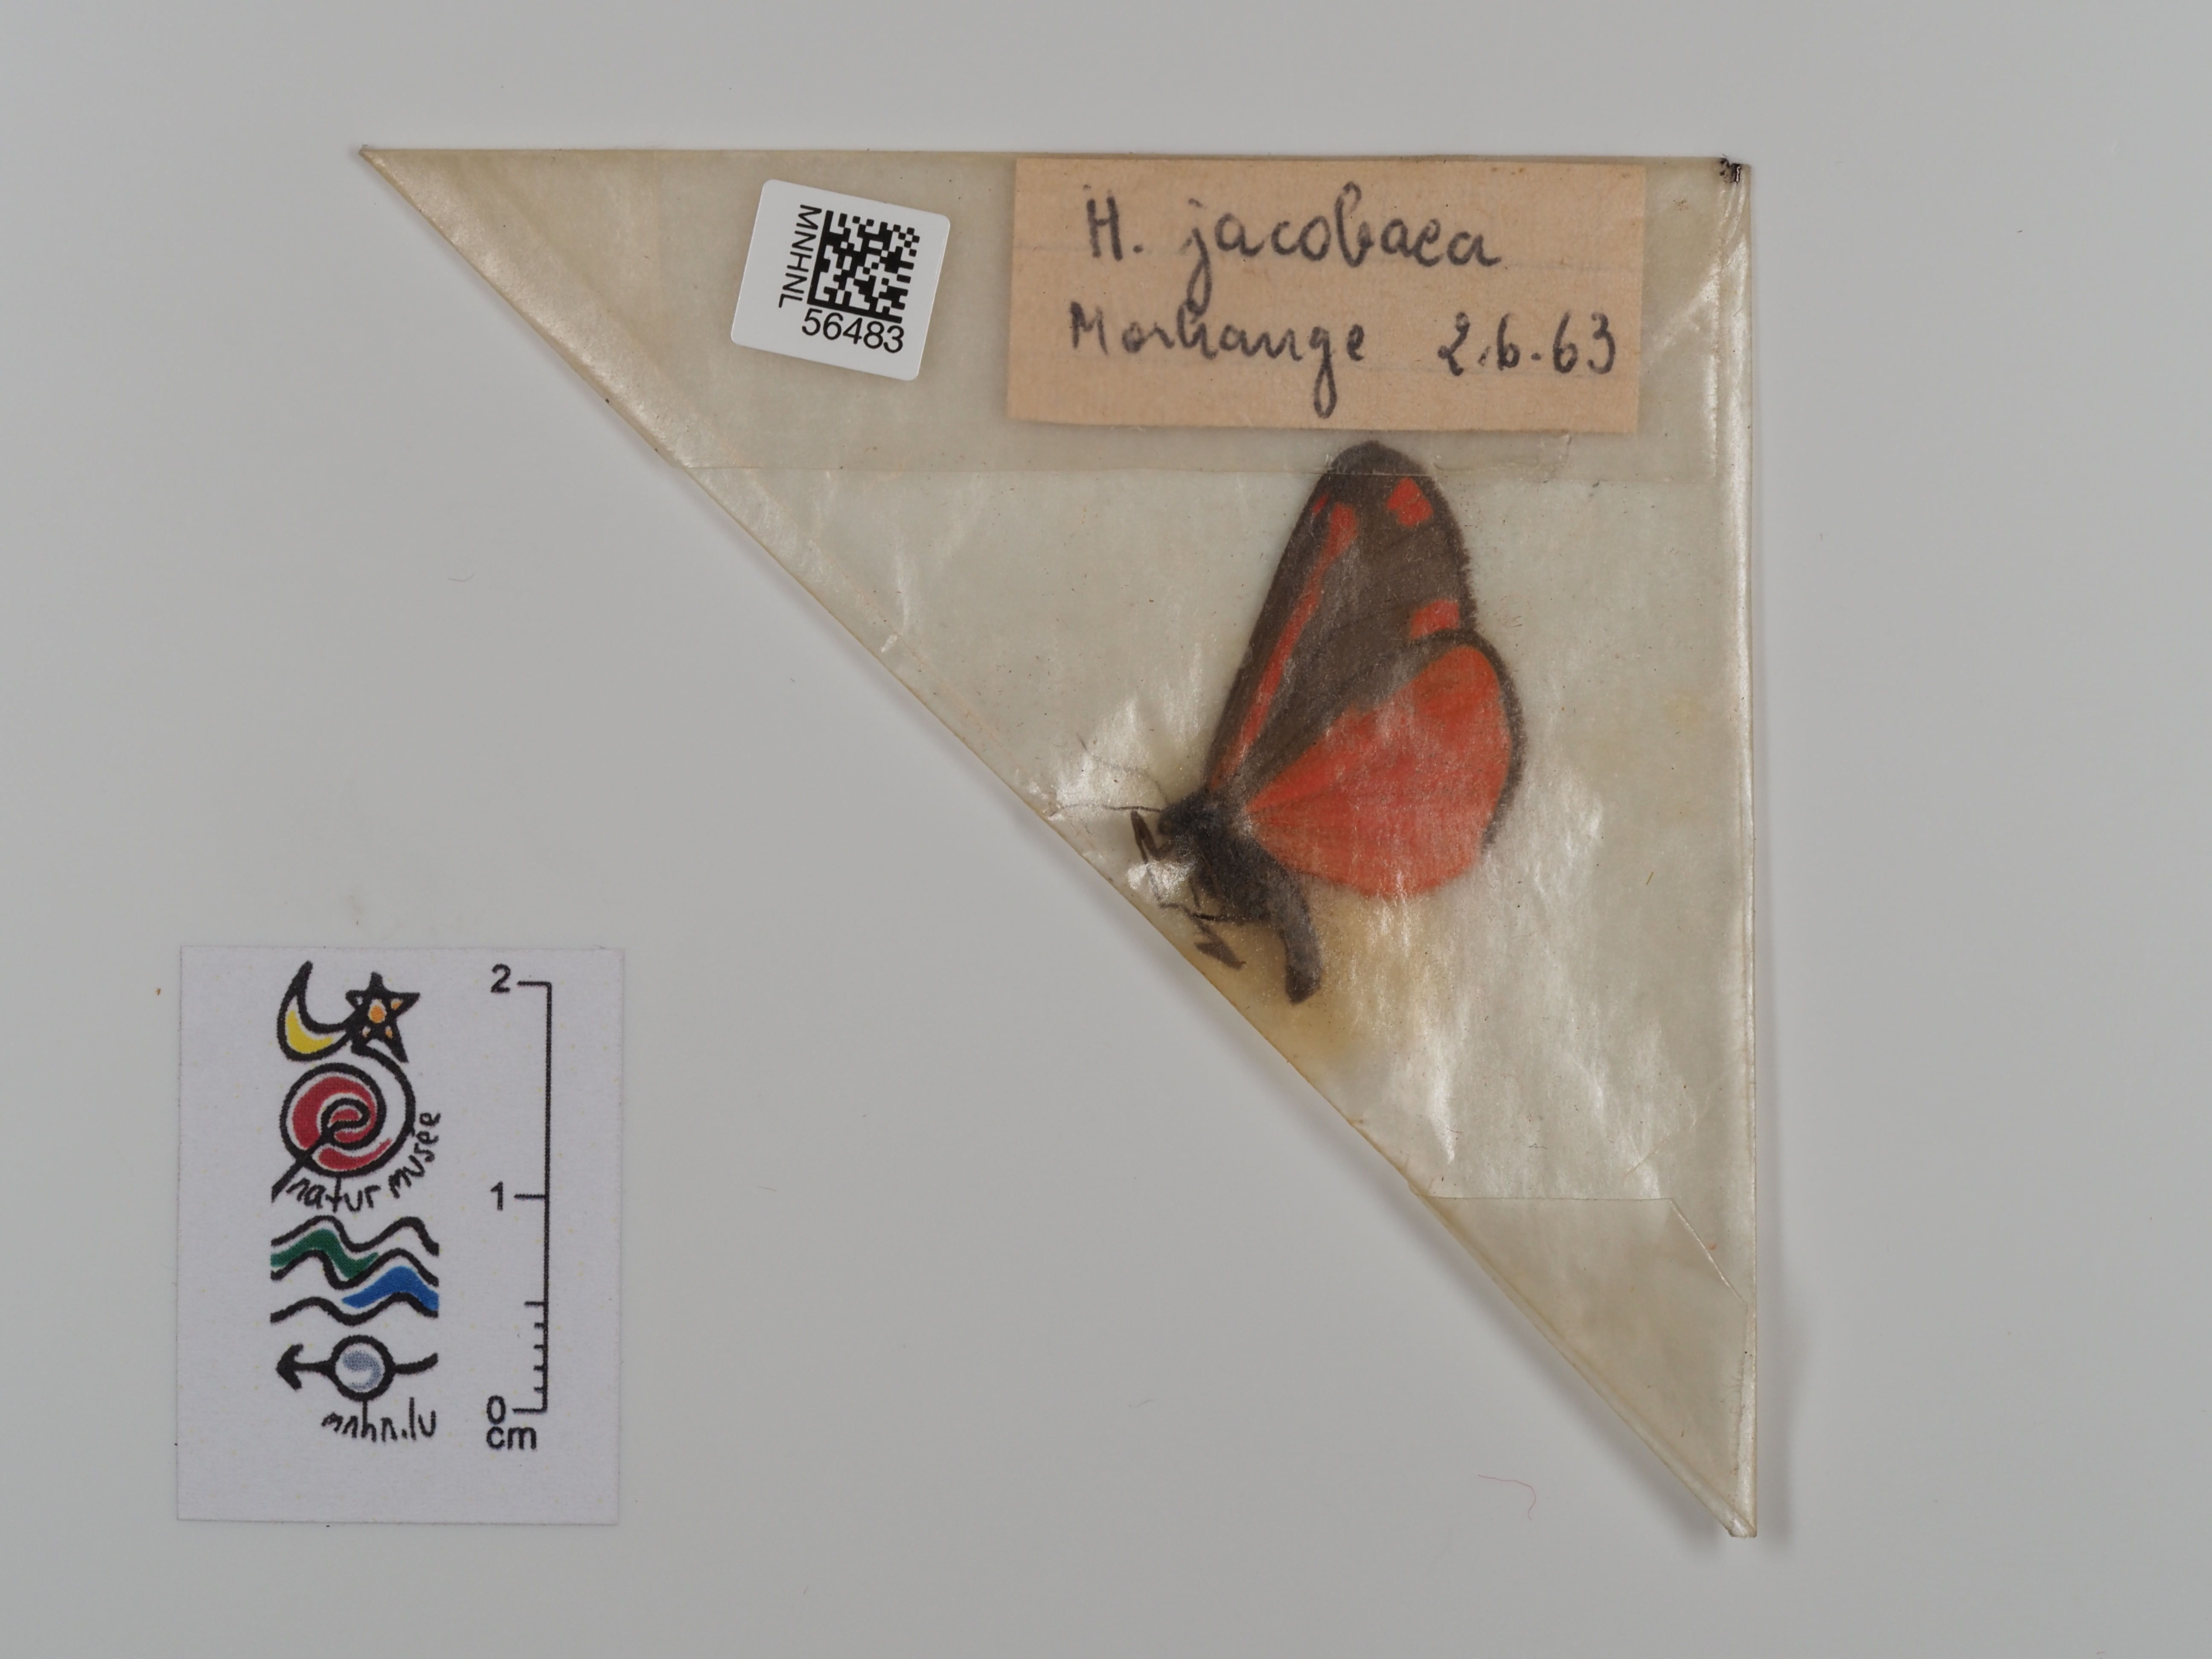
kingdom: Animalia
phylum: Arthropoda
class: Insecta
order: Lepidoptera
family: Erebidae
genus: Tyria
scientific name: Tyria jacobaeae
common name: Cinnabar
